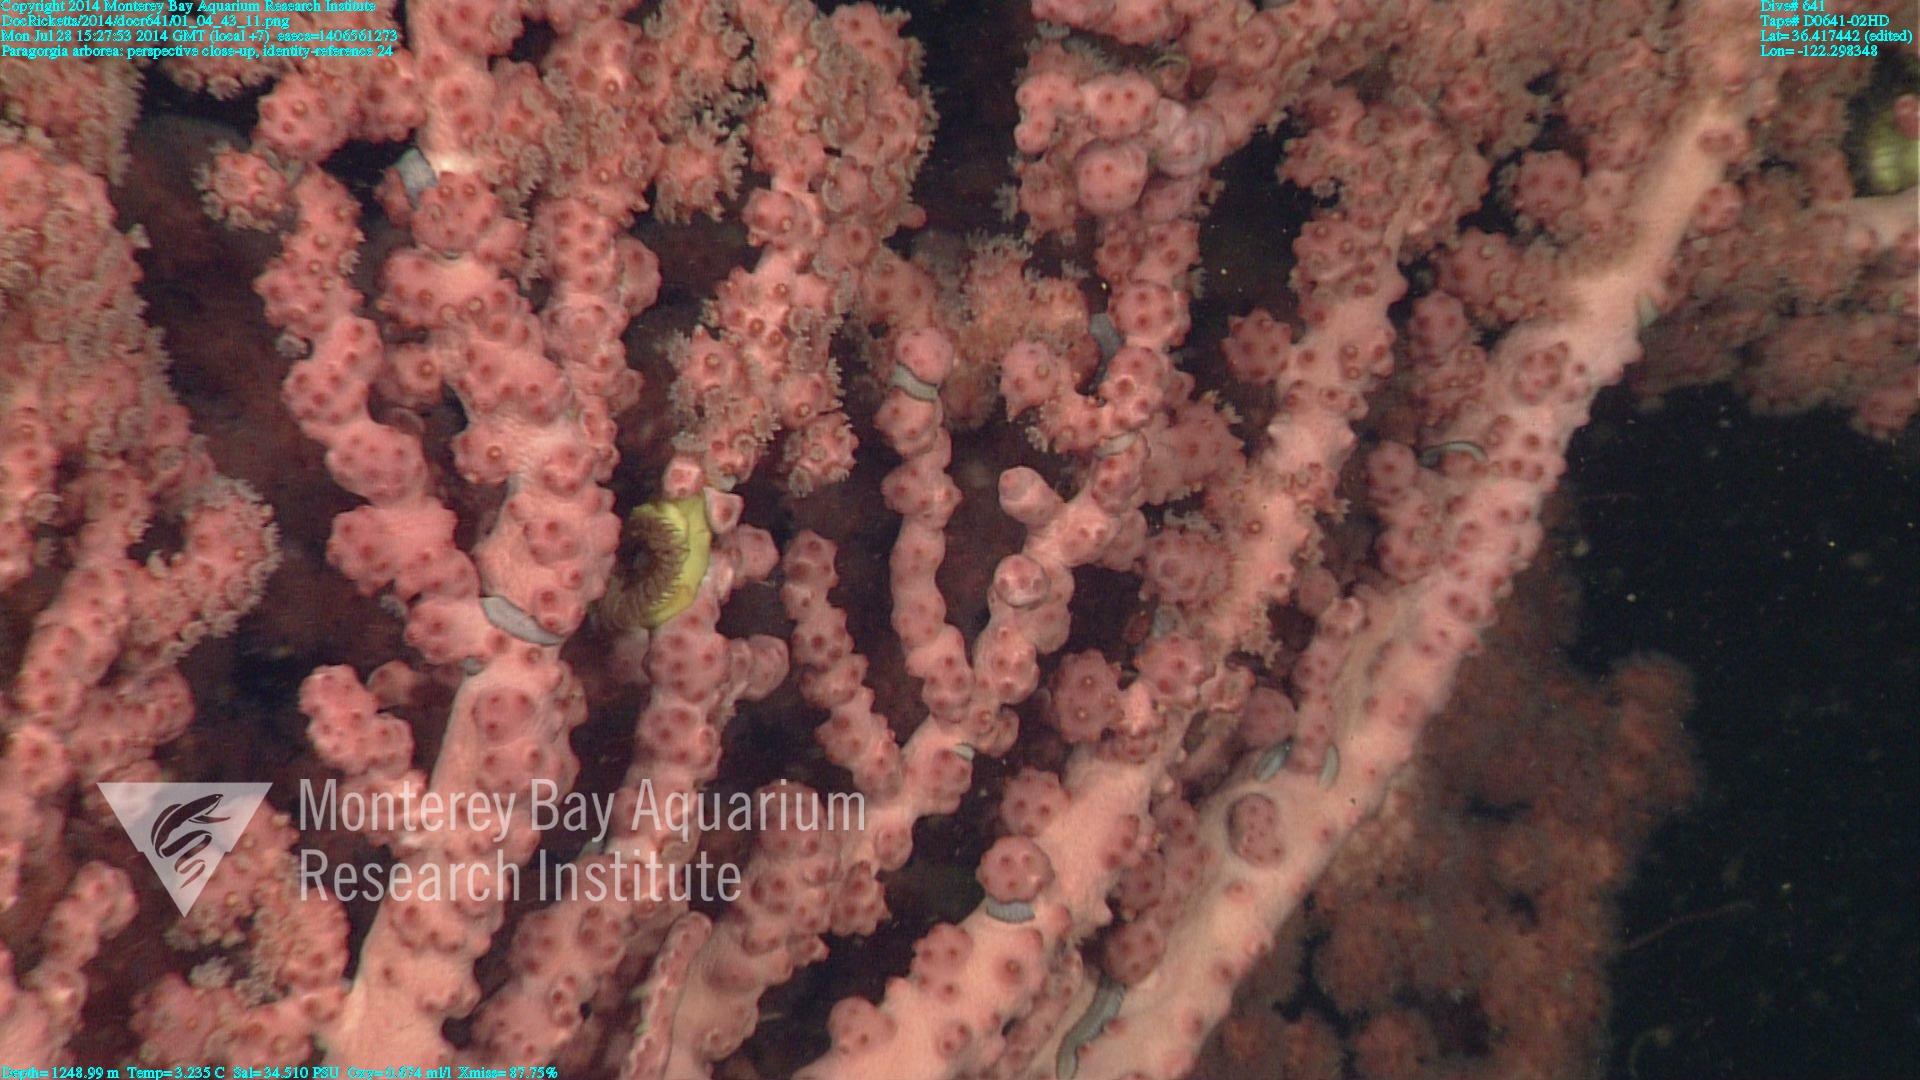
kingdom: Animalia
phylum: Cnidaria
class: Anthozoa
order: Scleralcyonacea
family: Coralliidae
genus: Paragorgia
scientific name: Paragorgia arborea
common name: Bubble gum coral
